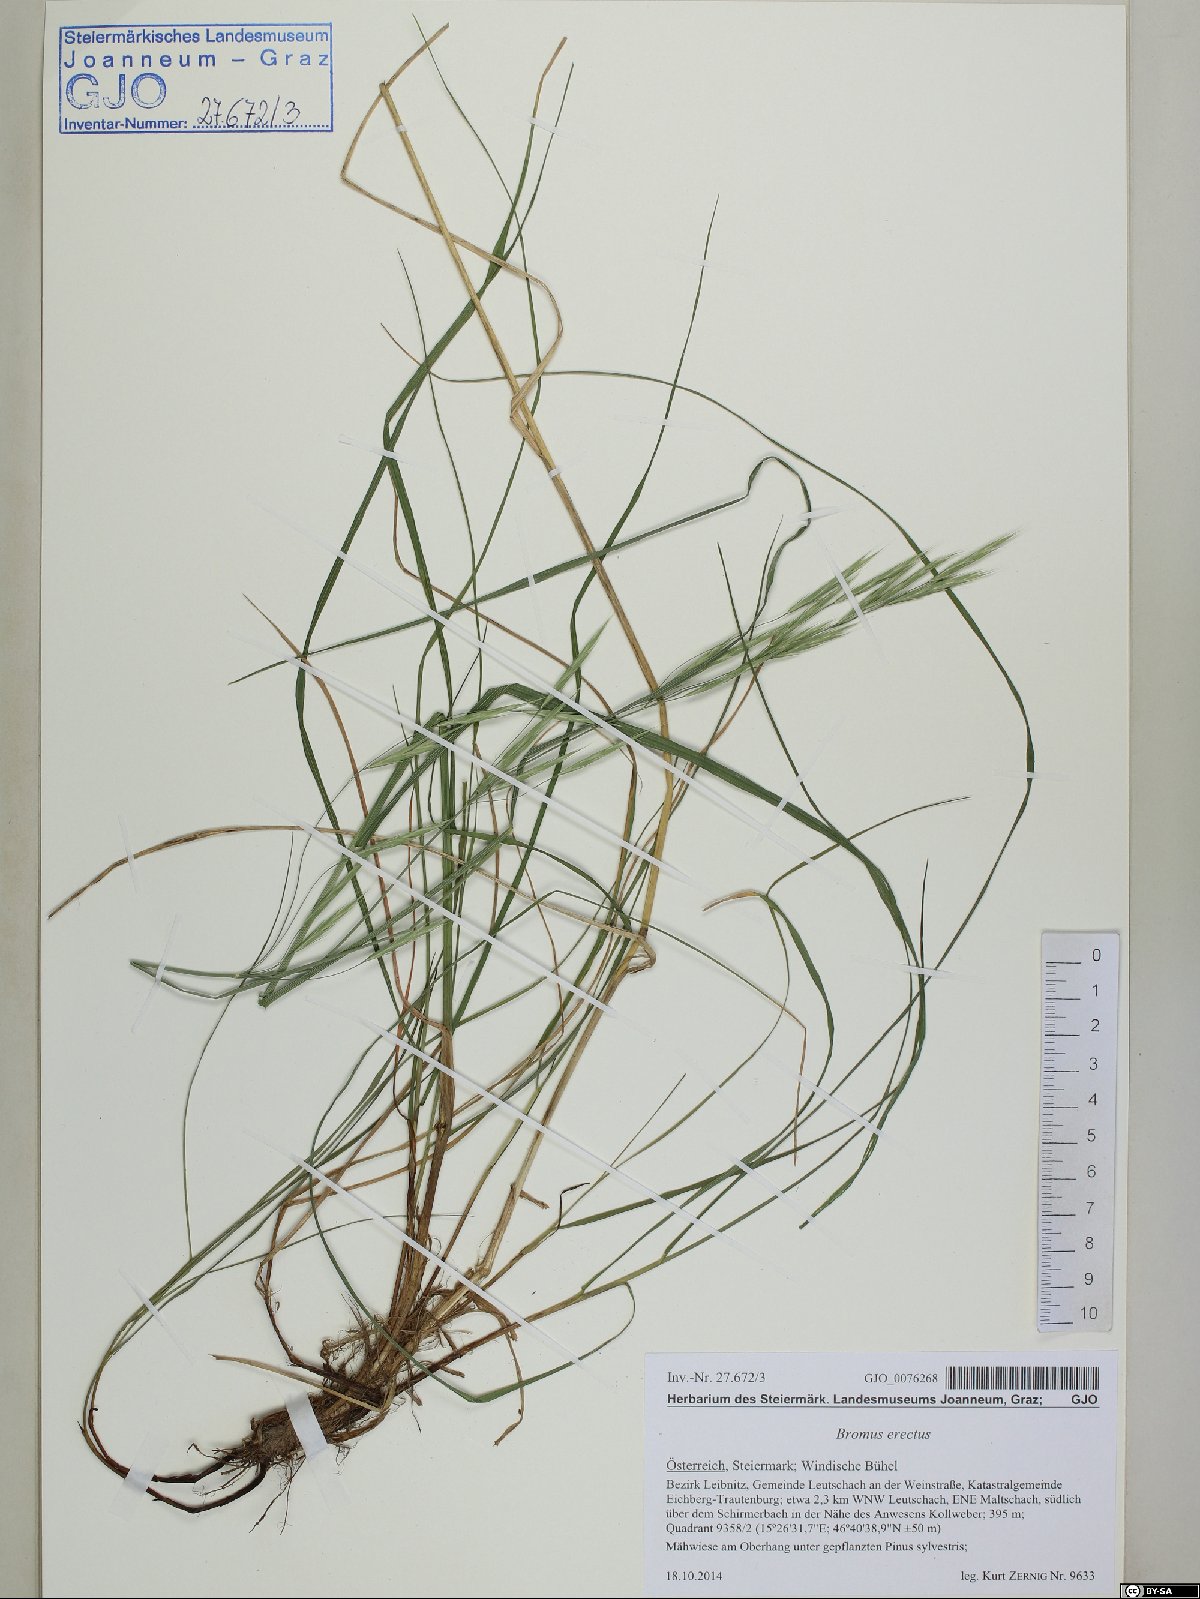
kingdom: Plantae
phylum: Tracheophyta
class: Liliopsida
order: Poales
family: Poaceae
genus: Bromus
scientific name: Bromus erectus
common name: Erect brome
